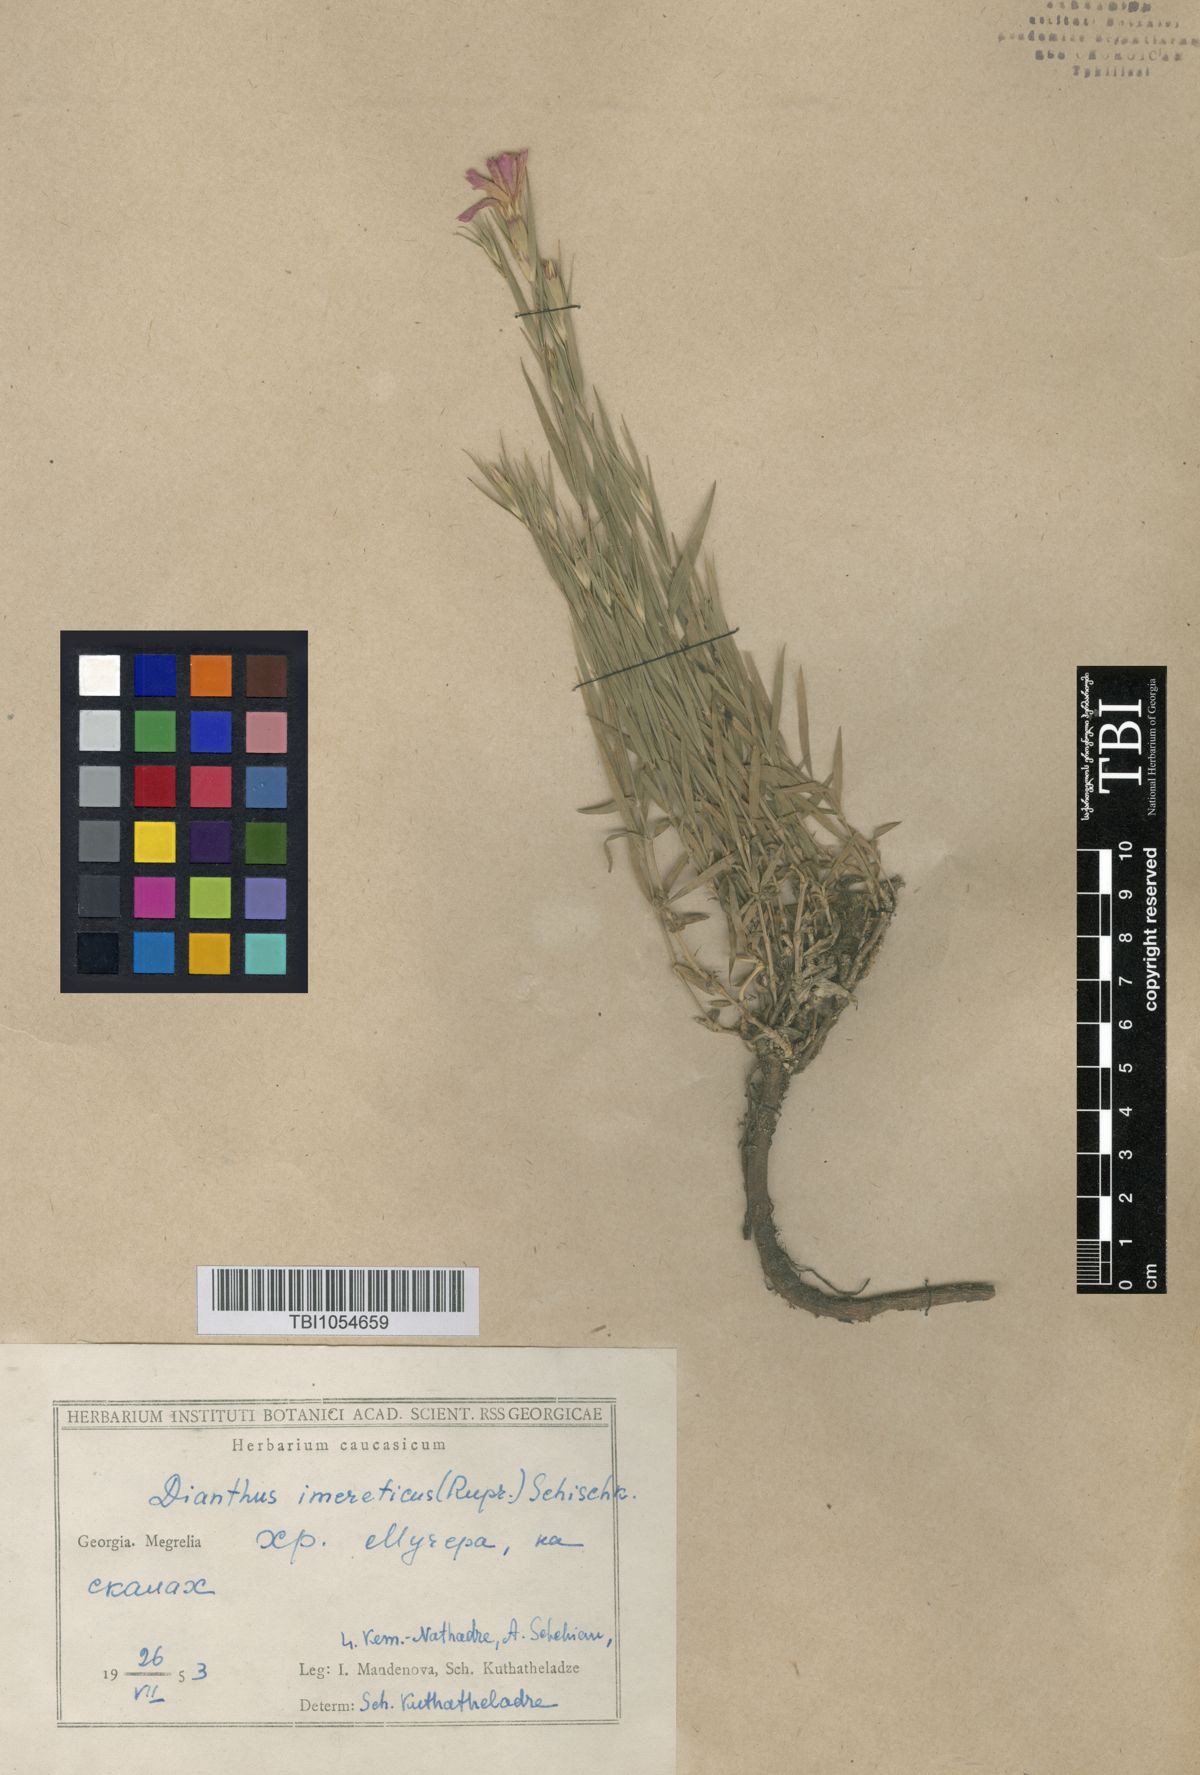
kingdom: Plantae
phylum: Tracheophyta
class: Magnoliopsida
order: Caryophyllales
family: Caryophyllaceae
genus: Dianthus
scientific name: Dianthus kusnezovii
